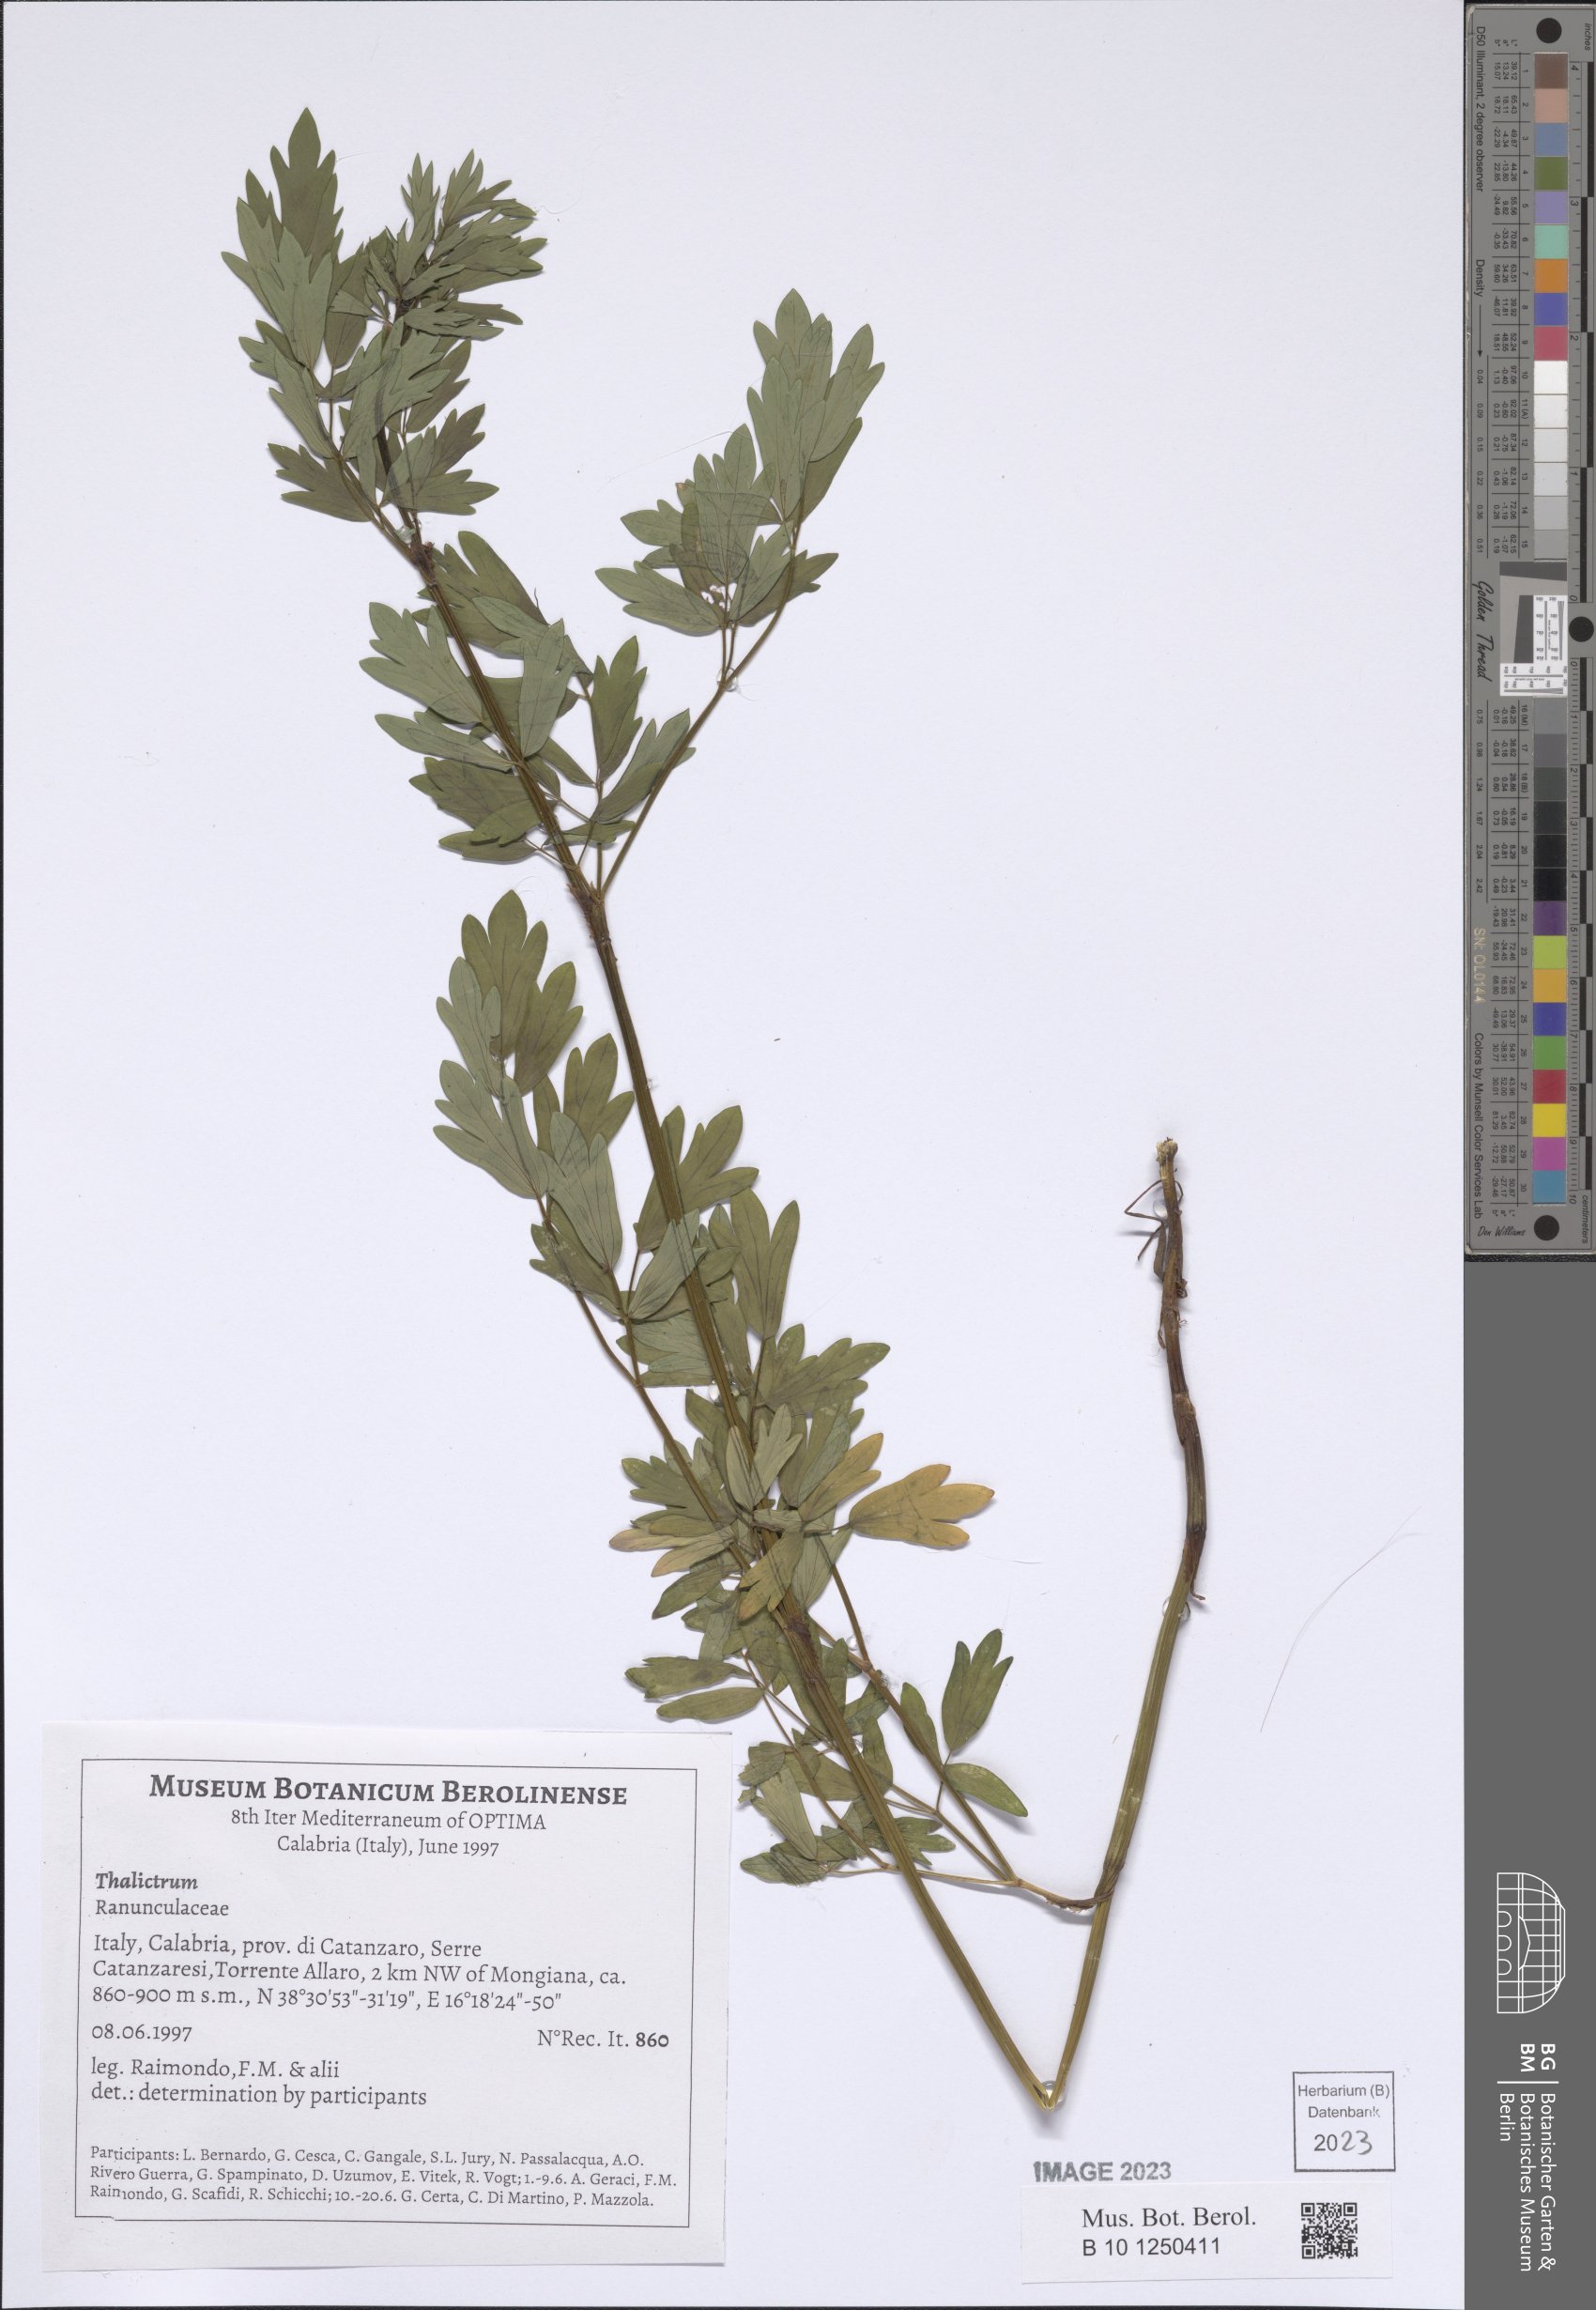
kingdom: Plantae
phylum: Tracheophyta
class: Magnoliopsida
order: Ranunculales
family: Ranunculaceae
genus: Thalictrum
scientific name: Thalictrum
